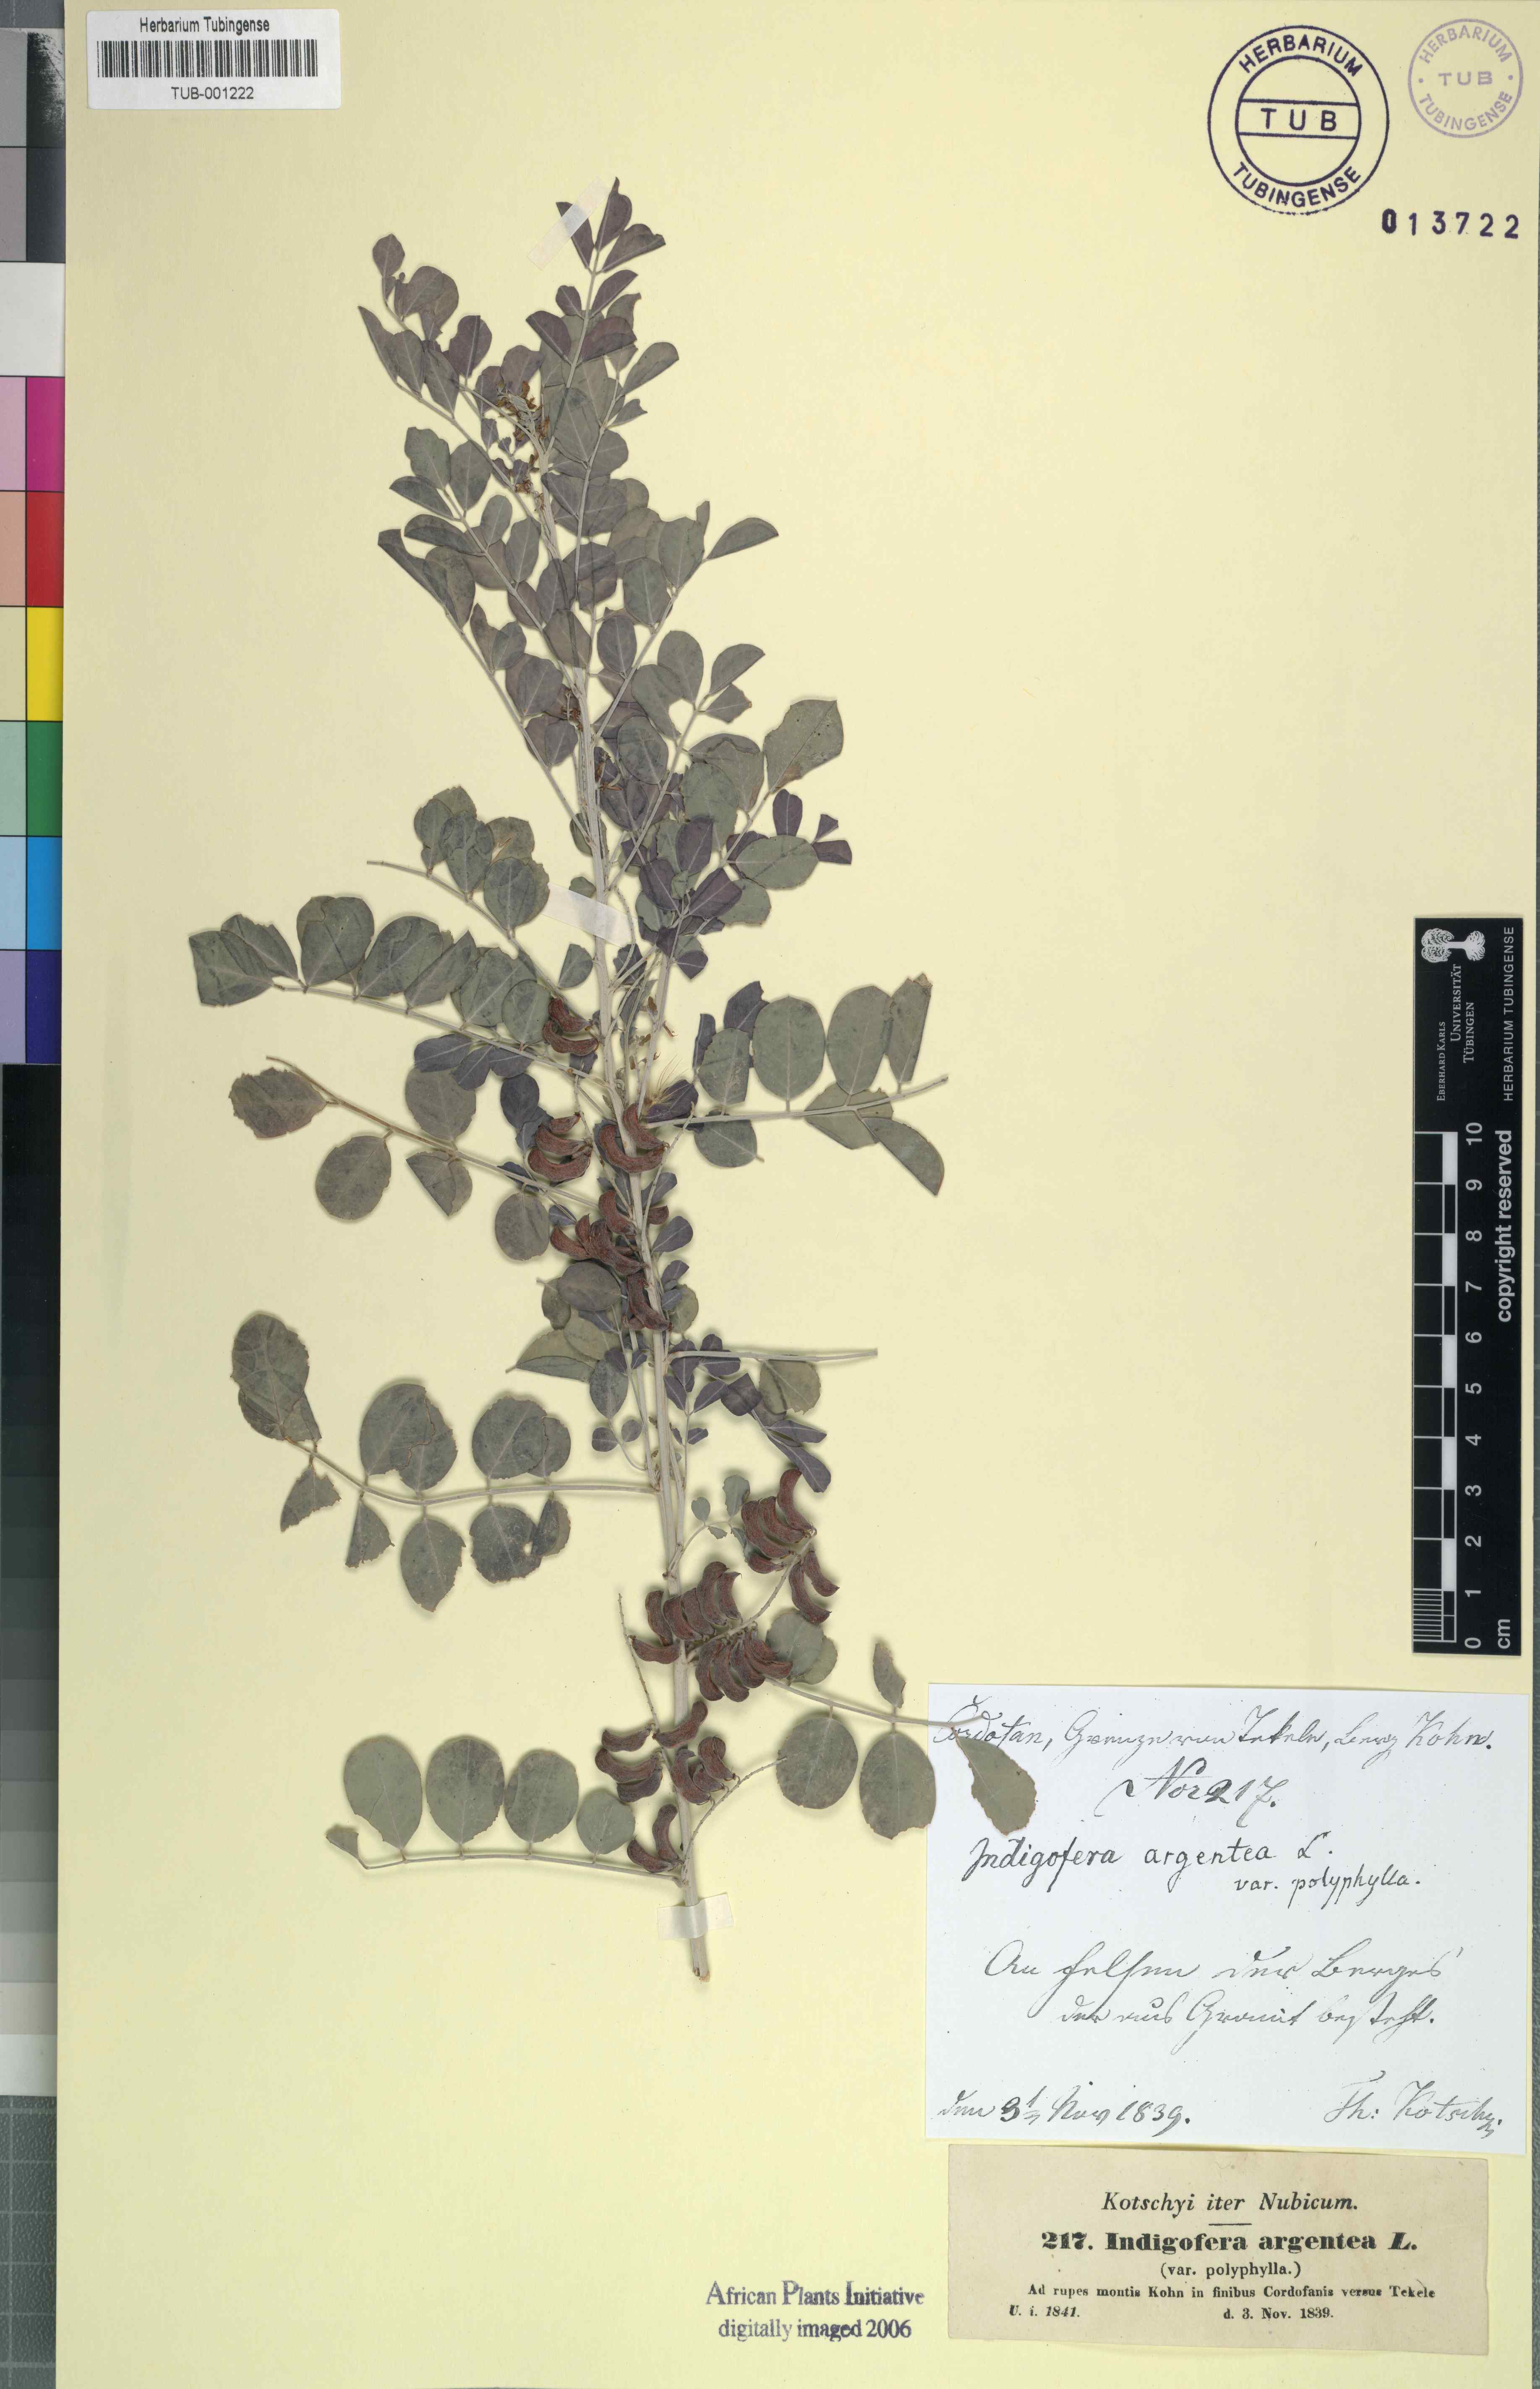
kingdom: Plantae
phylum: Tracheophyta
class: Magnoliopsida
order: Fabales
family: Fabaceae
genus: Indigofera
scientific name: Indigofera argentea
